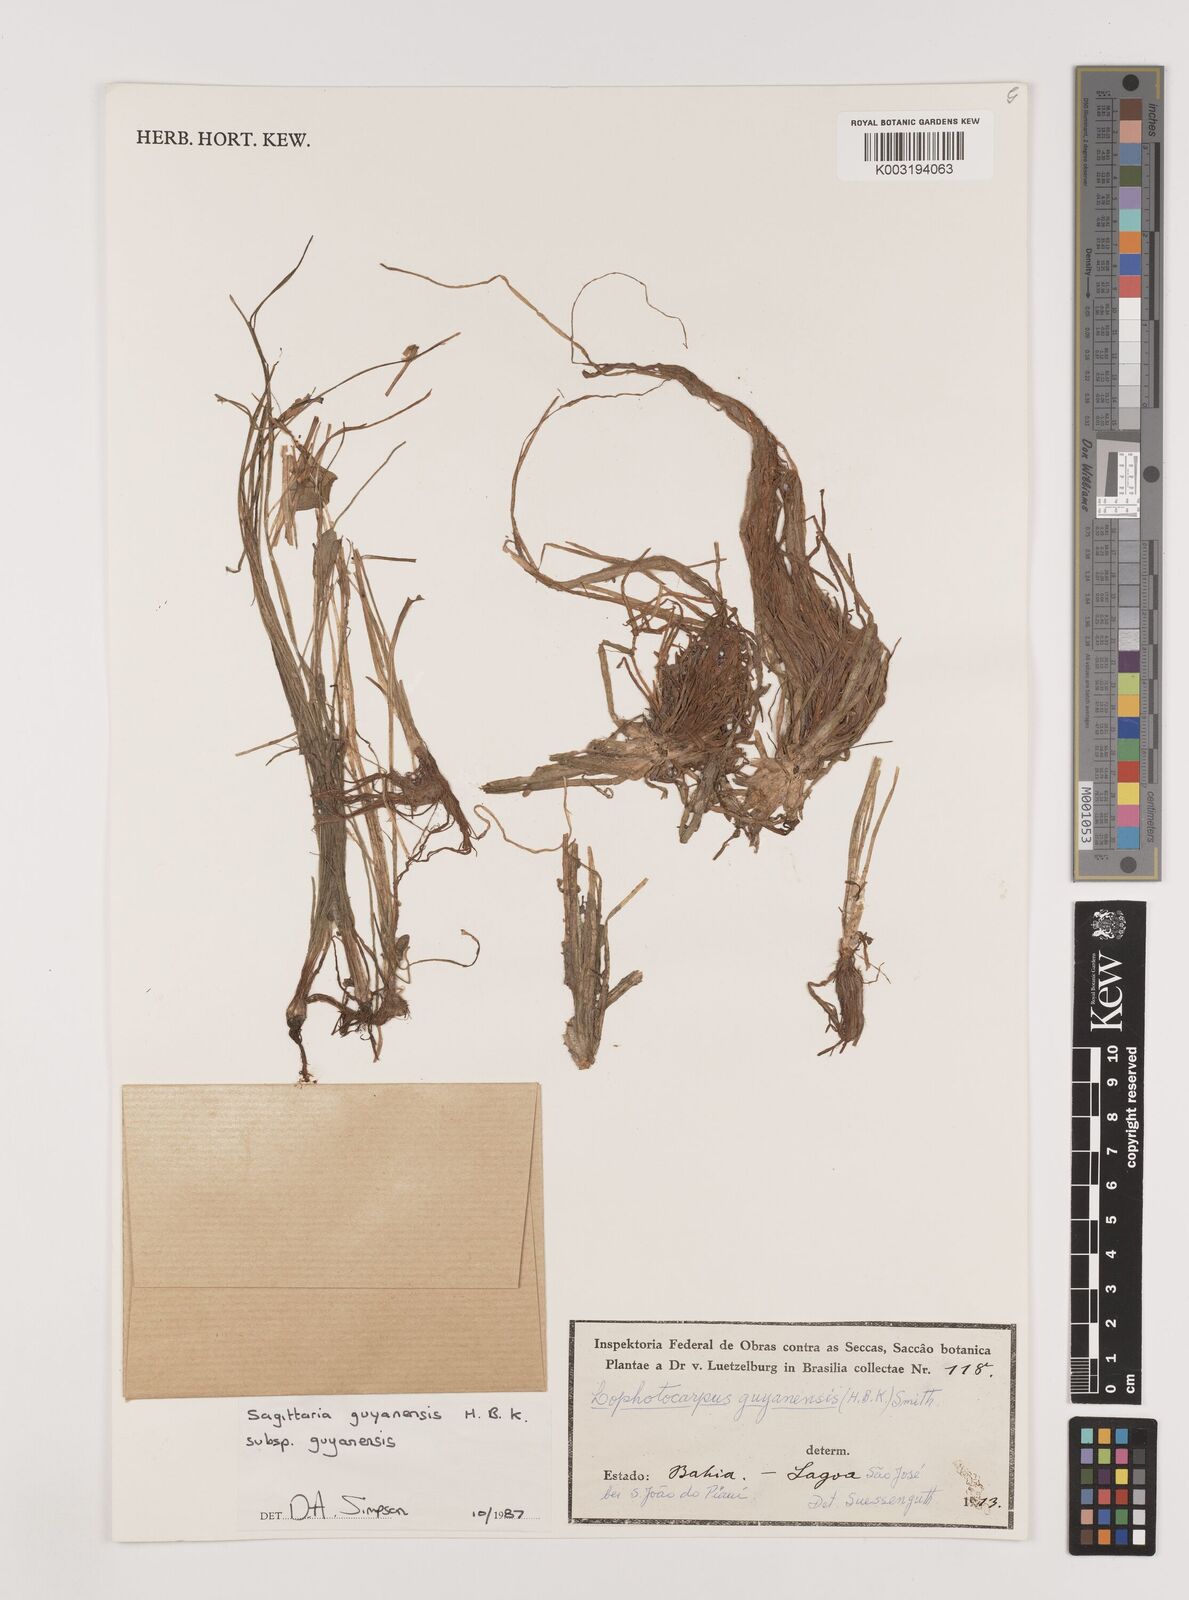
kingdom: Plantae
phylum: Tracheophyta
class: Liliopsida
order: Alismatales
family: Alismataceae
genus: Sagittaria
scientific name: Sagittaria guayanensis
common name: Guyanese arrowhead
